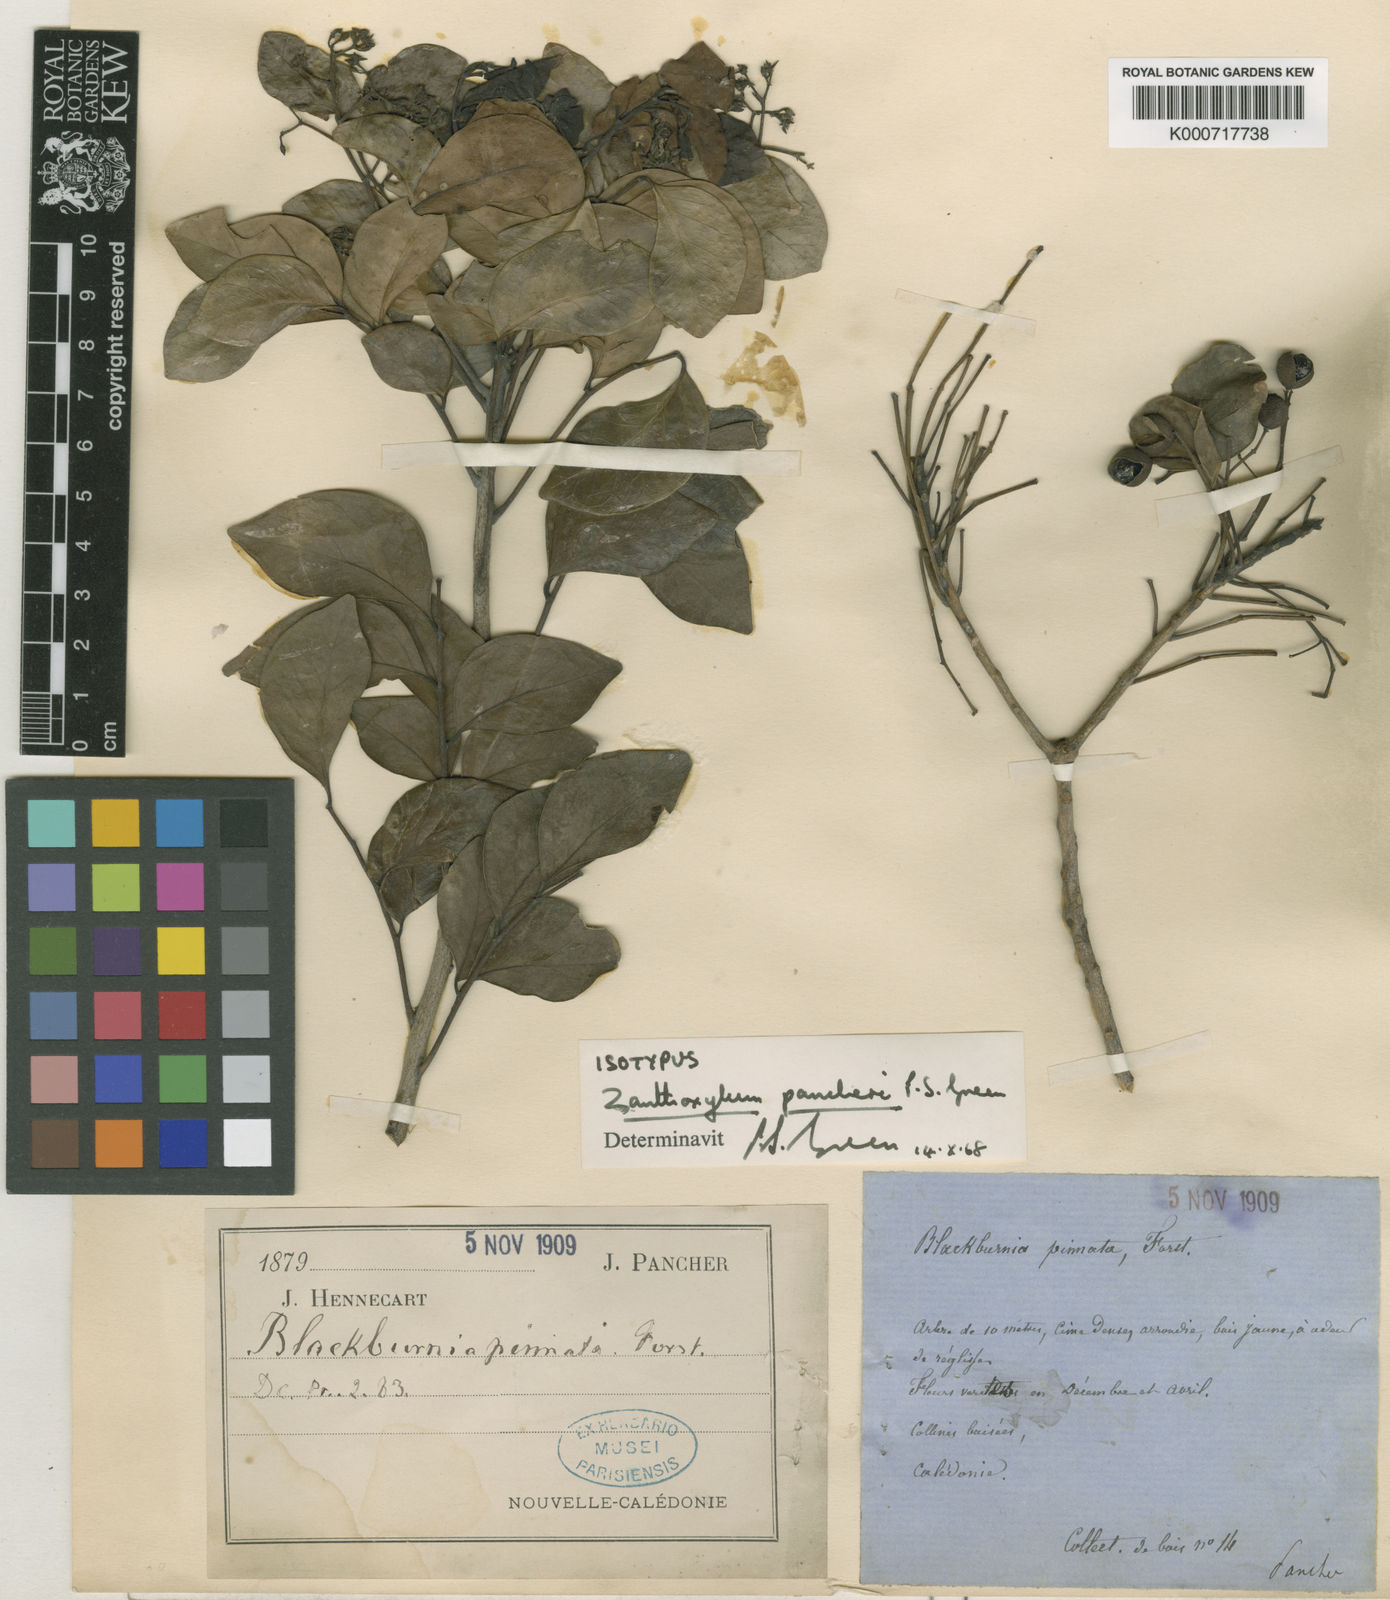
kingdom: Plantae
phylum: Tracheophyta
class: Magnoliopsida
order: Sapindales
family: Rutaceae
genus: Zanthoxylum
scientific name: Zanthoxylum pancheri
